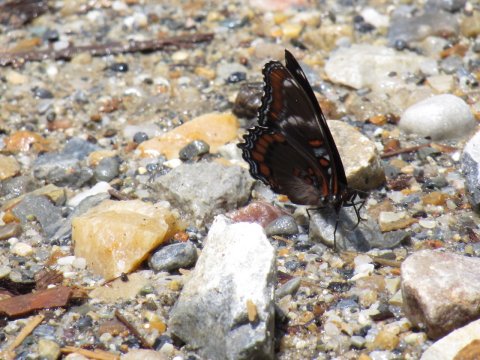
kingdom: Animalia
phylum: Arthropoda
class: Insecta
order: Lepidoptera
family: Nymphalidae
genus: Limenitis
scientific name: Limenitis arthemis
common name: Red-spotted Admiral
